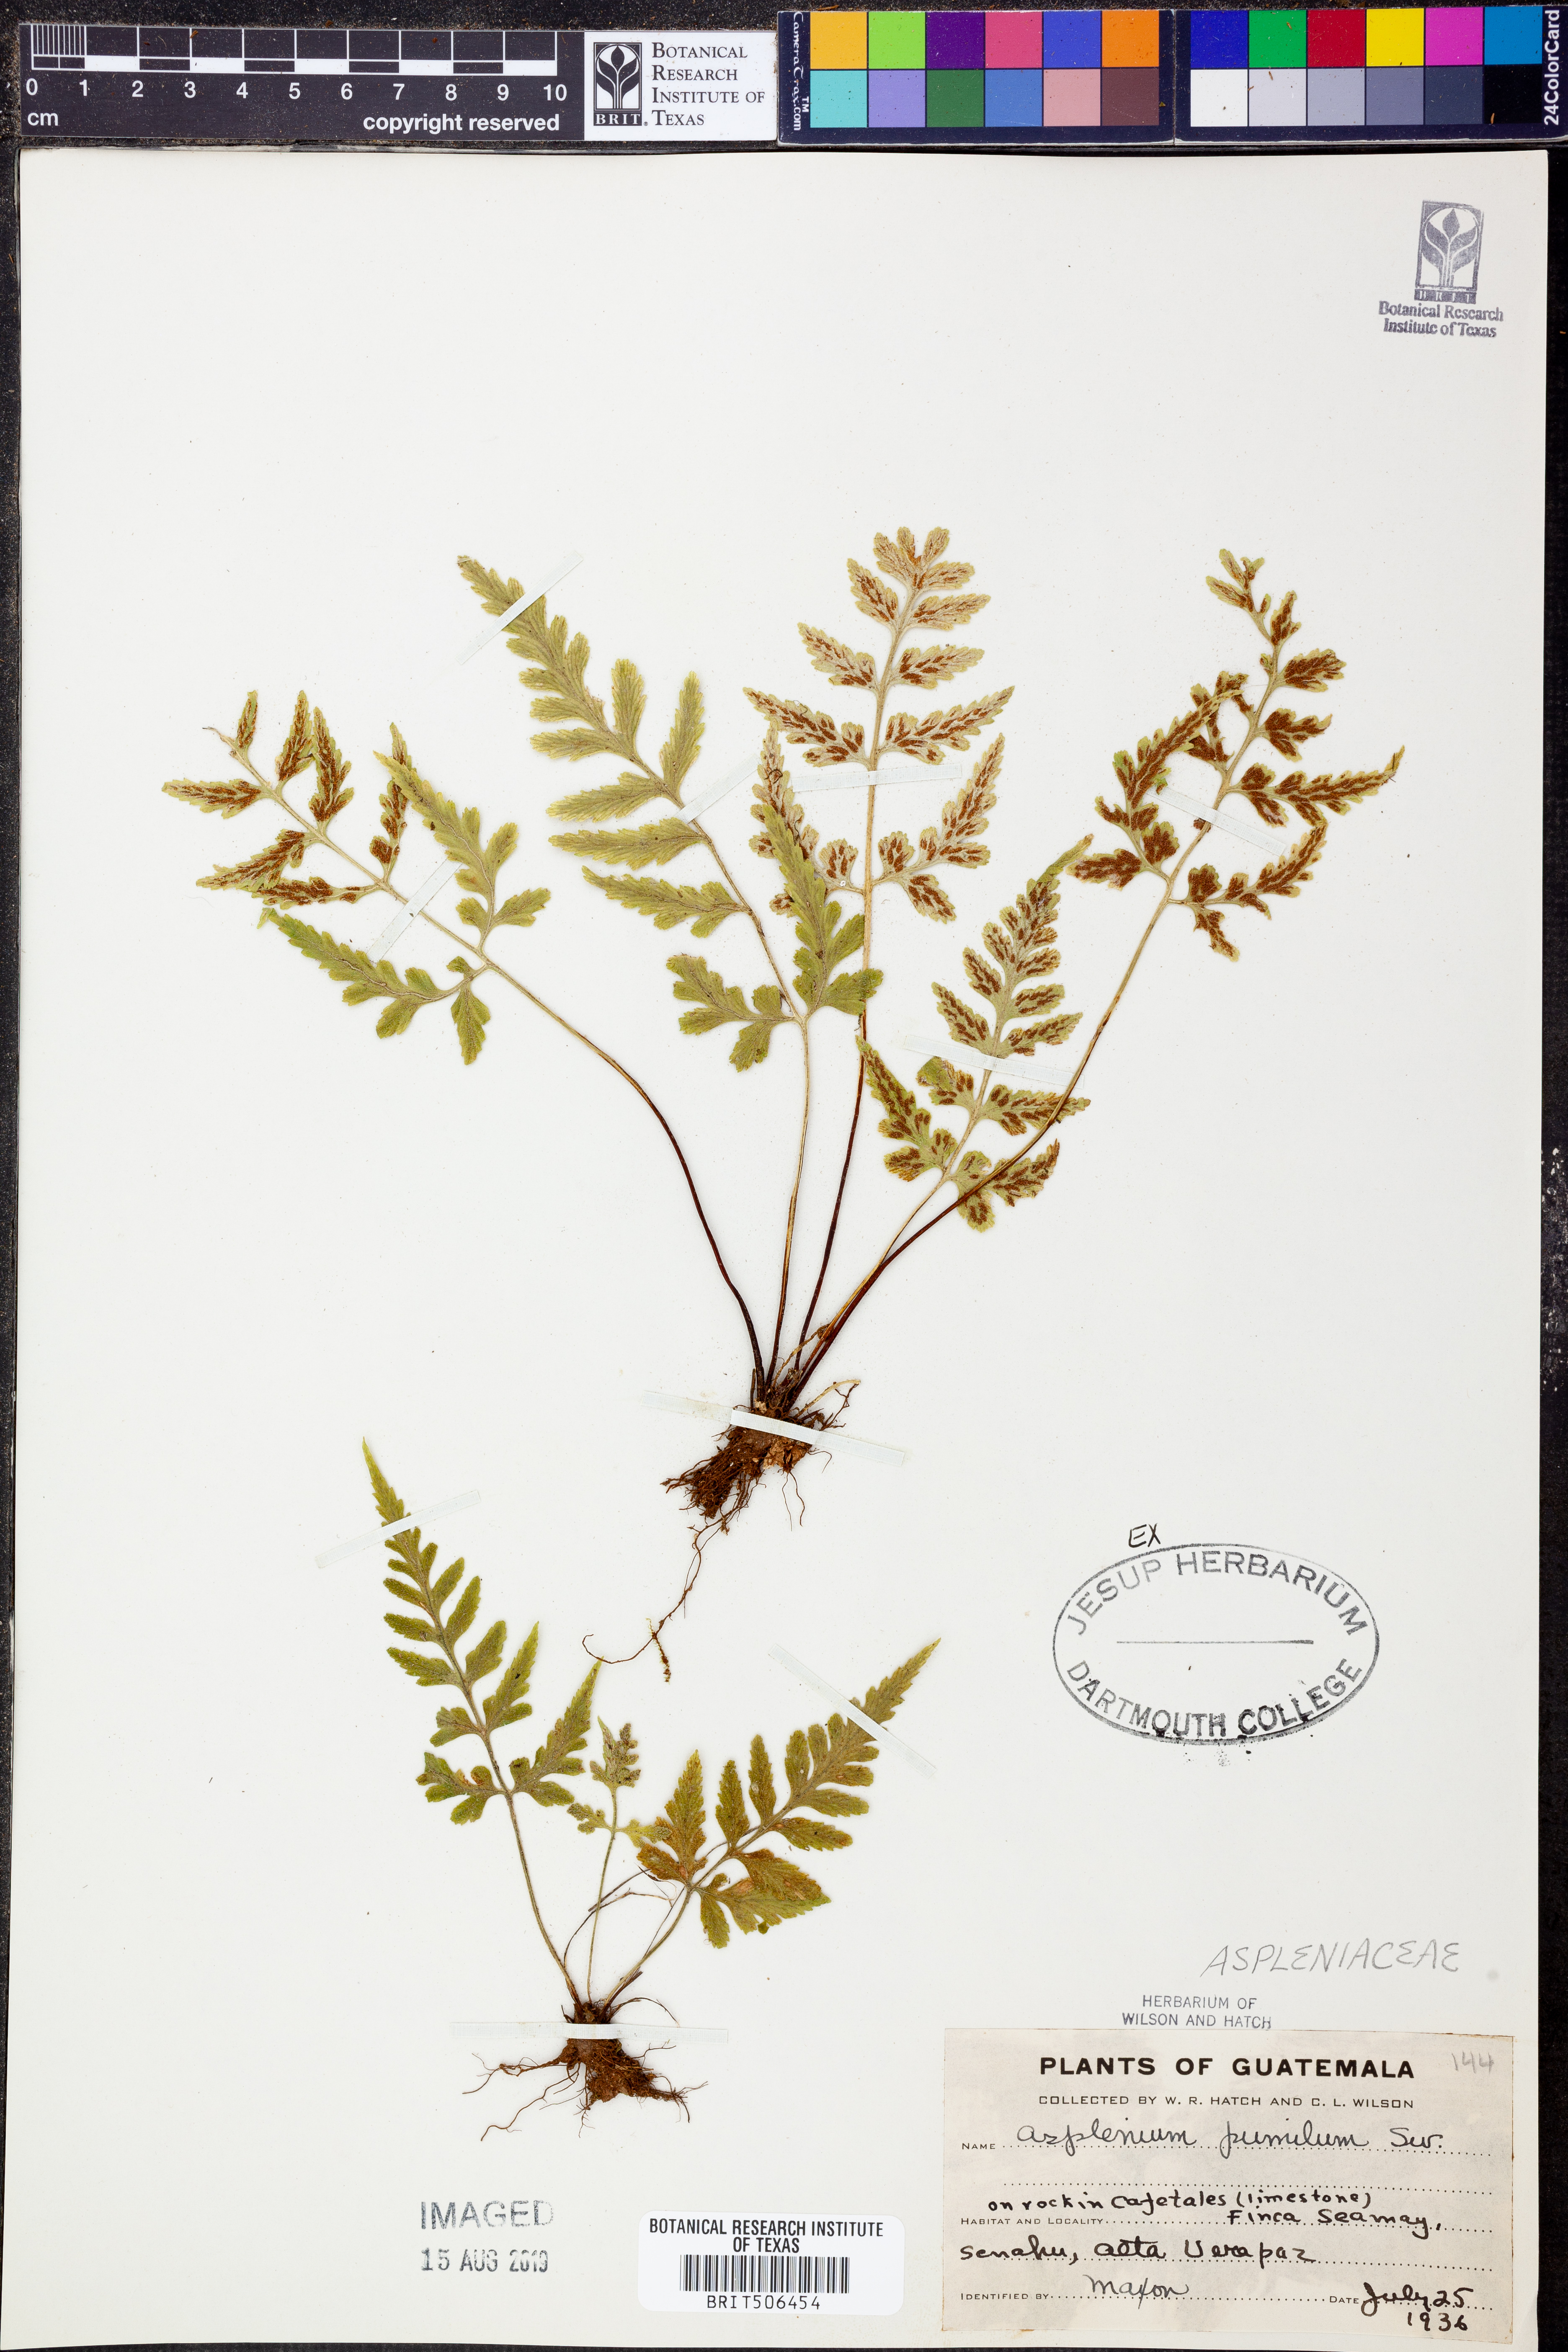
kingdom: Plantae
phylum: Tracheophyta
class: Polypodiopsida
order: Polypodiales
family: Aspleniaceae
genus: Asplenium
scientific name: Asplenium pumilum
